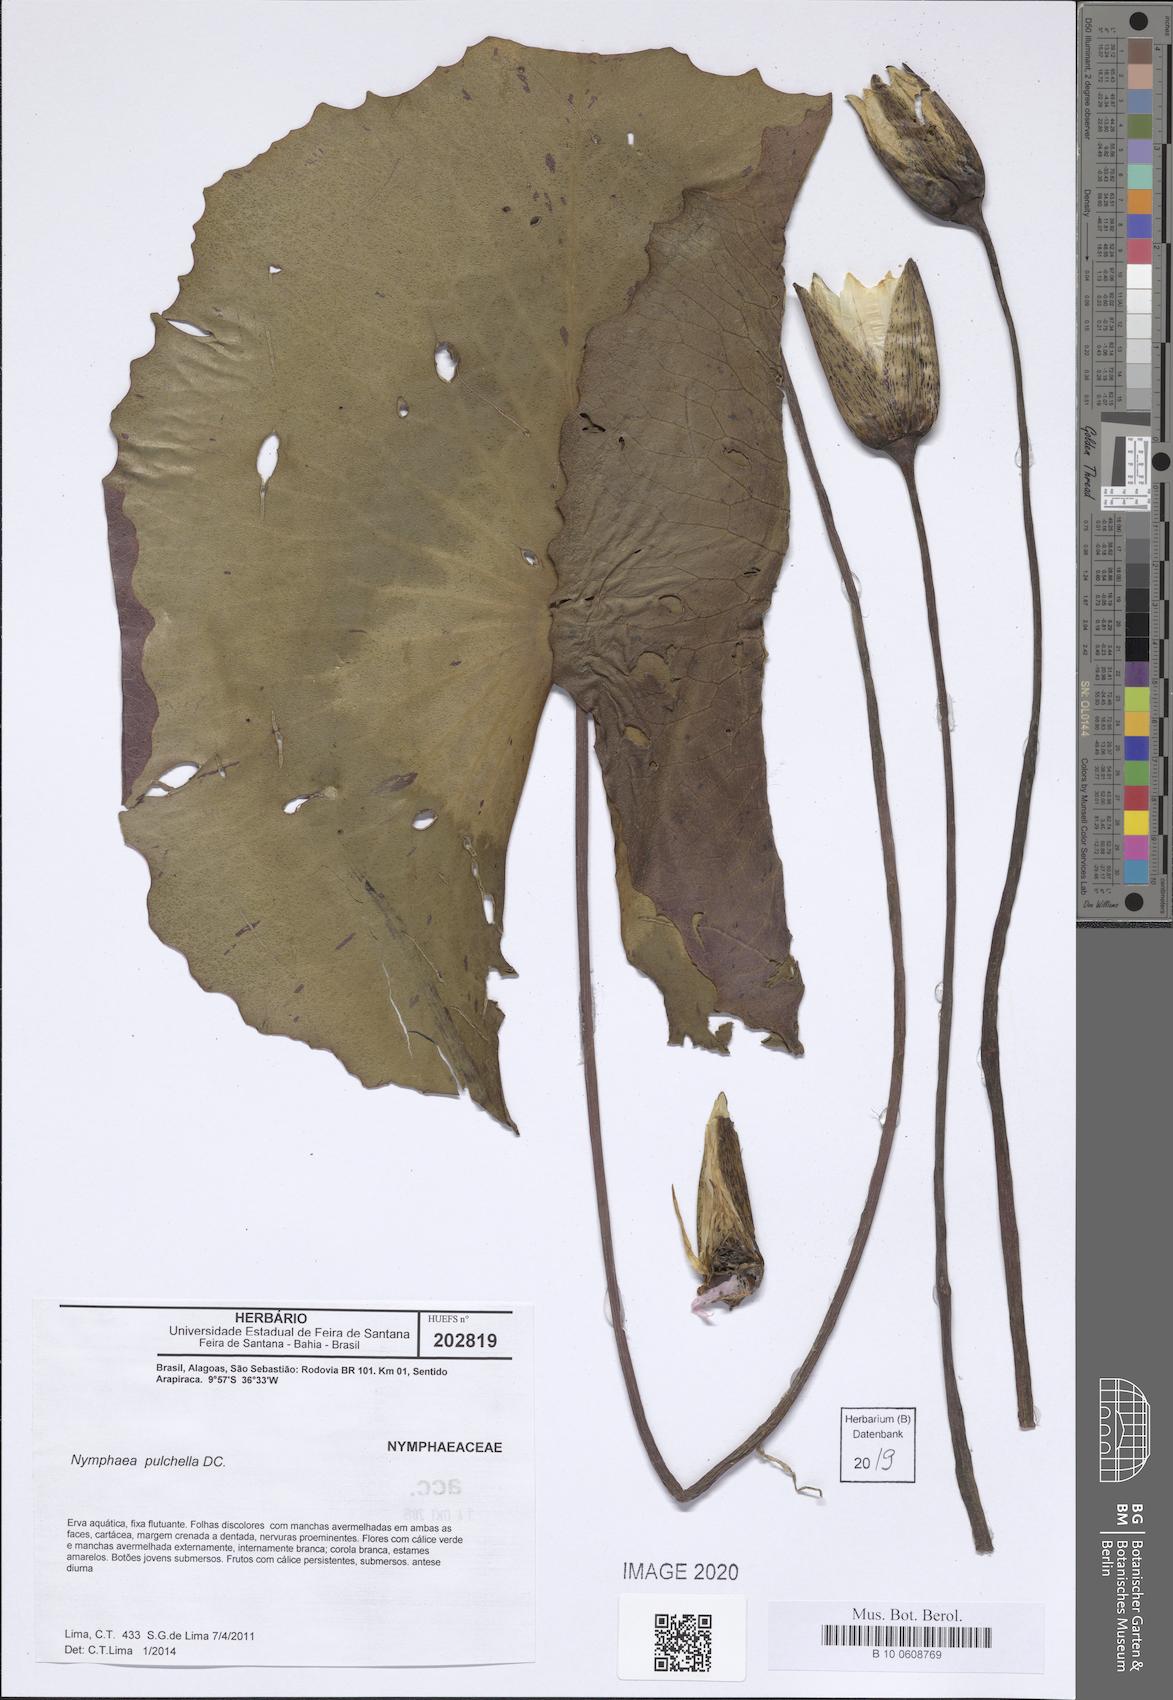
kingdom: Plantae
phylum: Tracheophyta
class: Magnoliopsida
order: Nymphaeales
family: Nymphaeaceae
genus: Nymphaea
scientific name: Nymphaea pulchella
